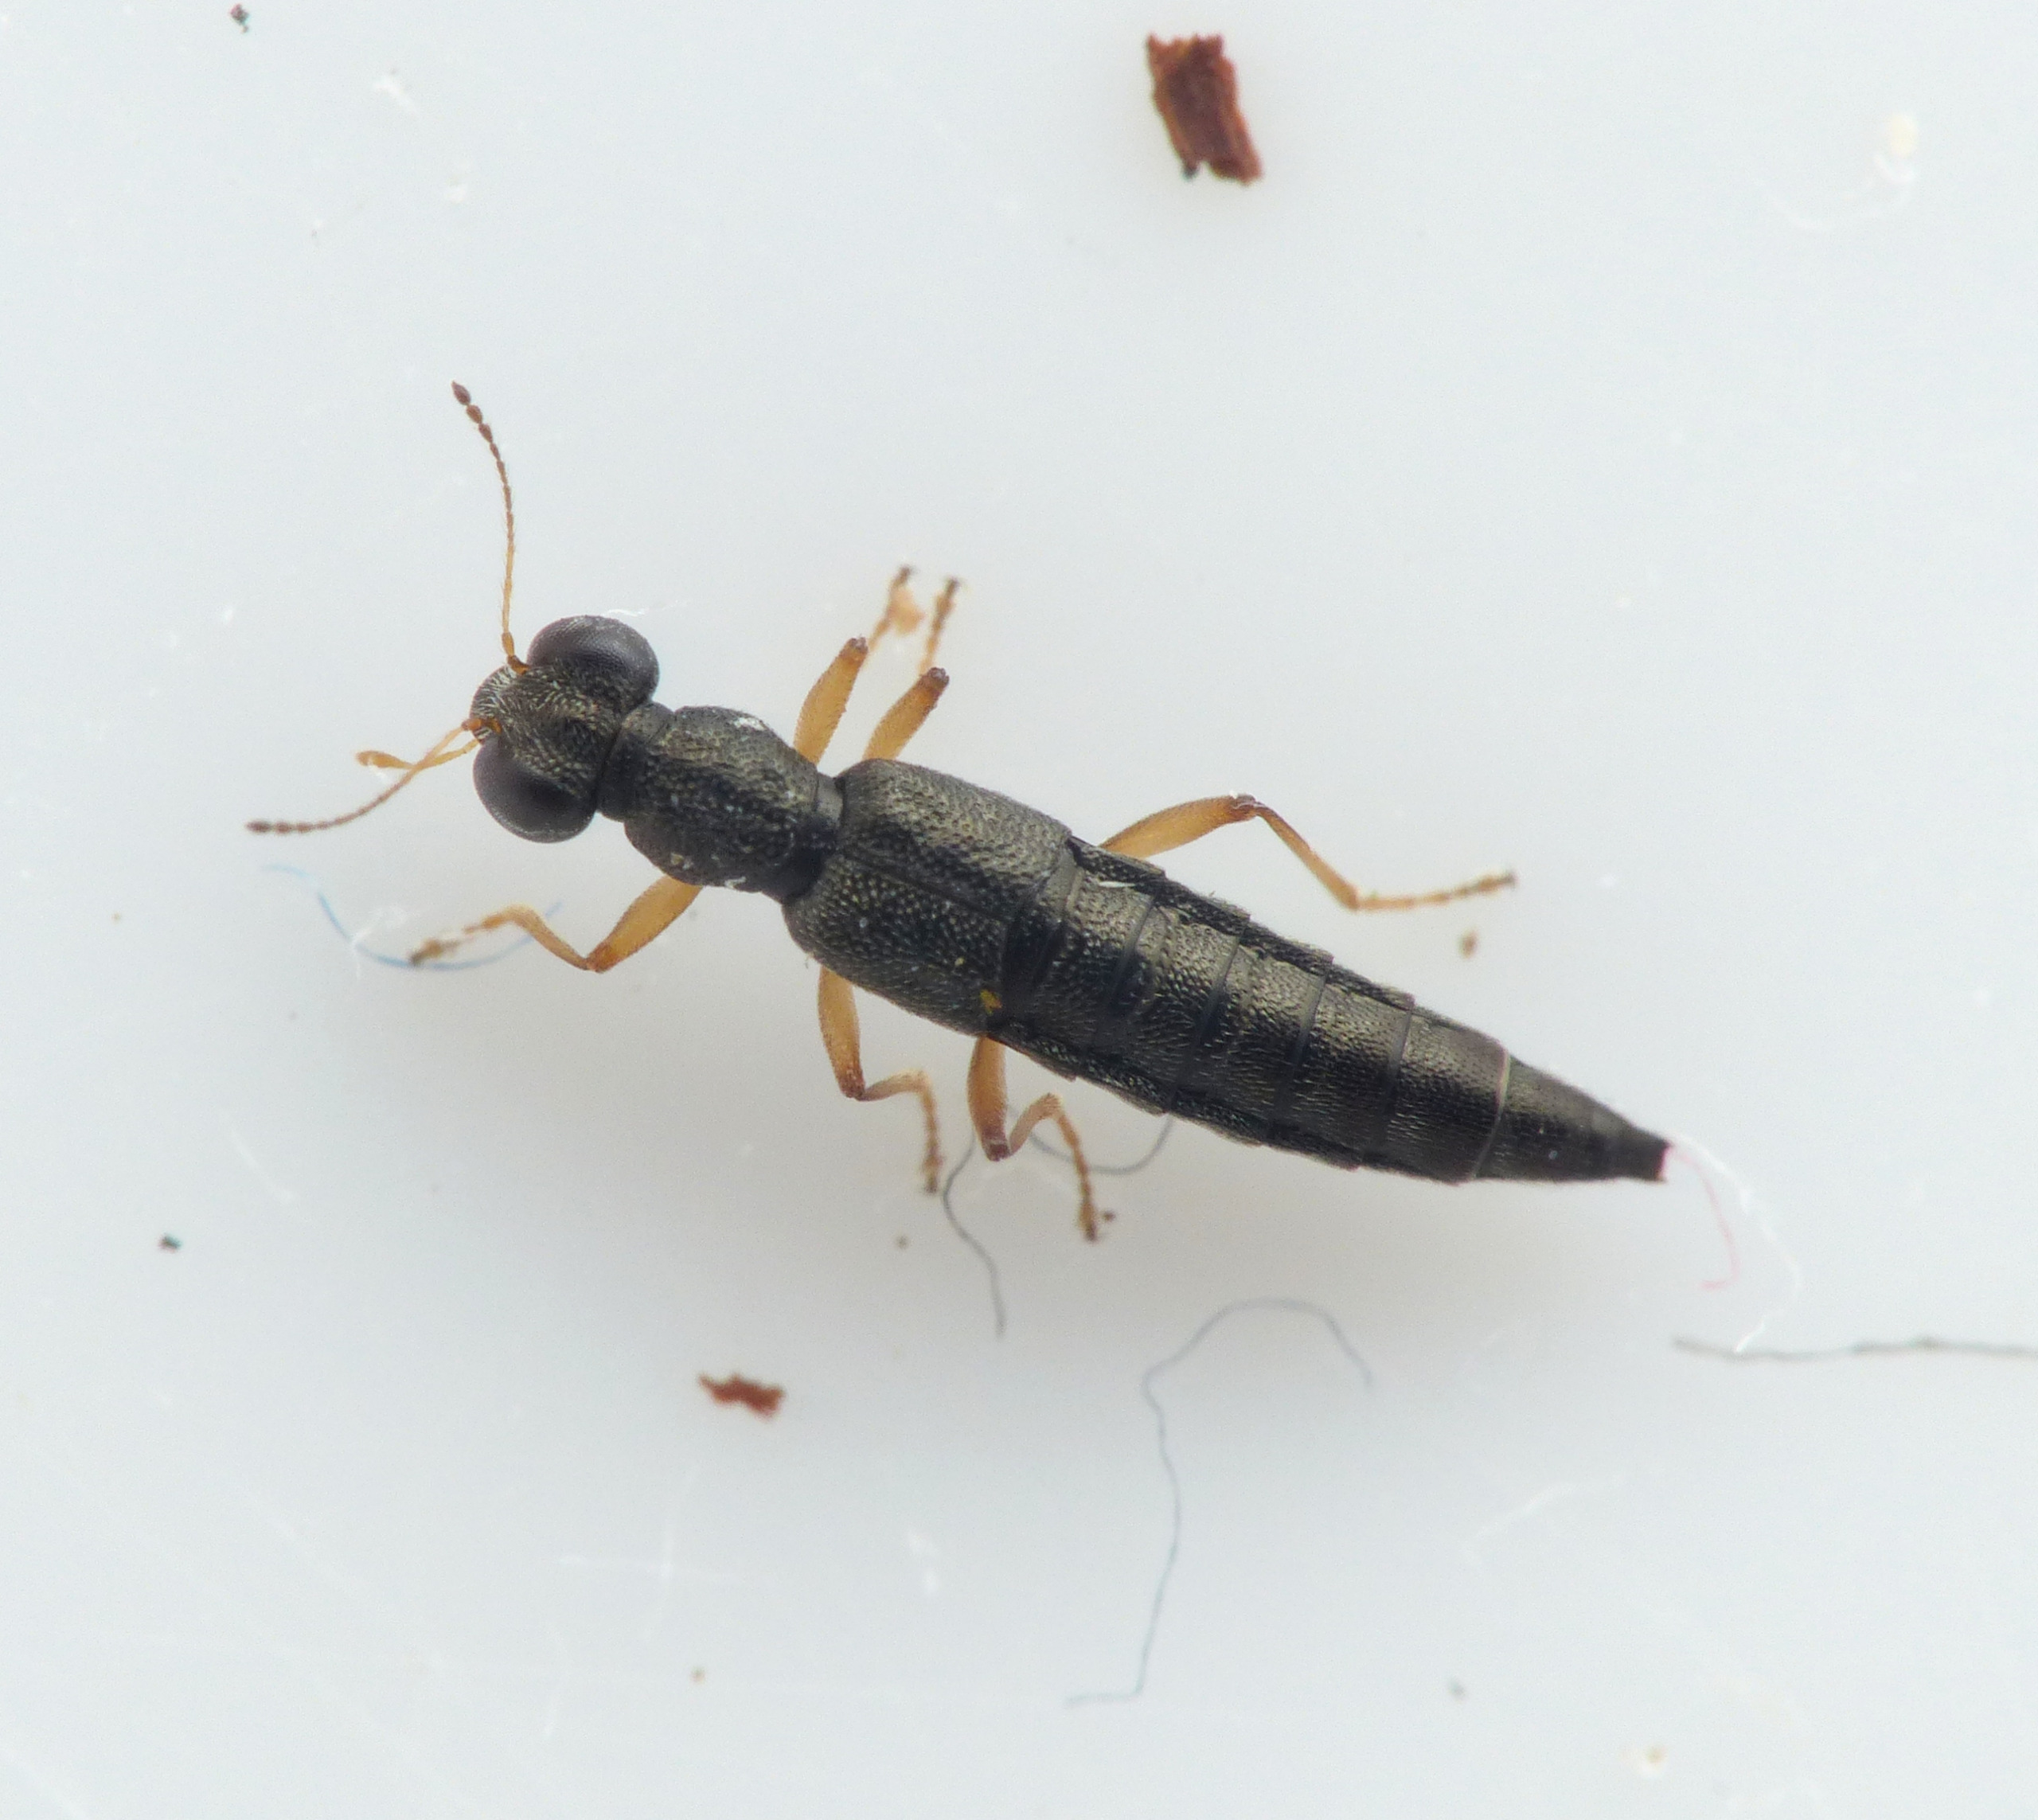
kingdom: Animalia
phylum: Arthropoda
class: Insecta
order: Coleoptera
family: Staphylinidae
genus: Stenus
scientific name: Stenus impressus
